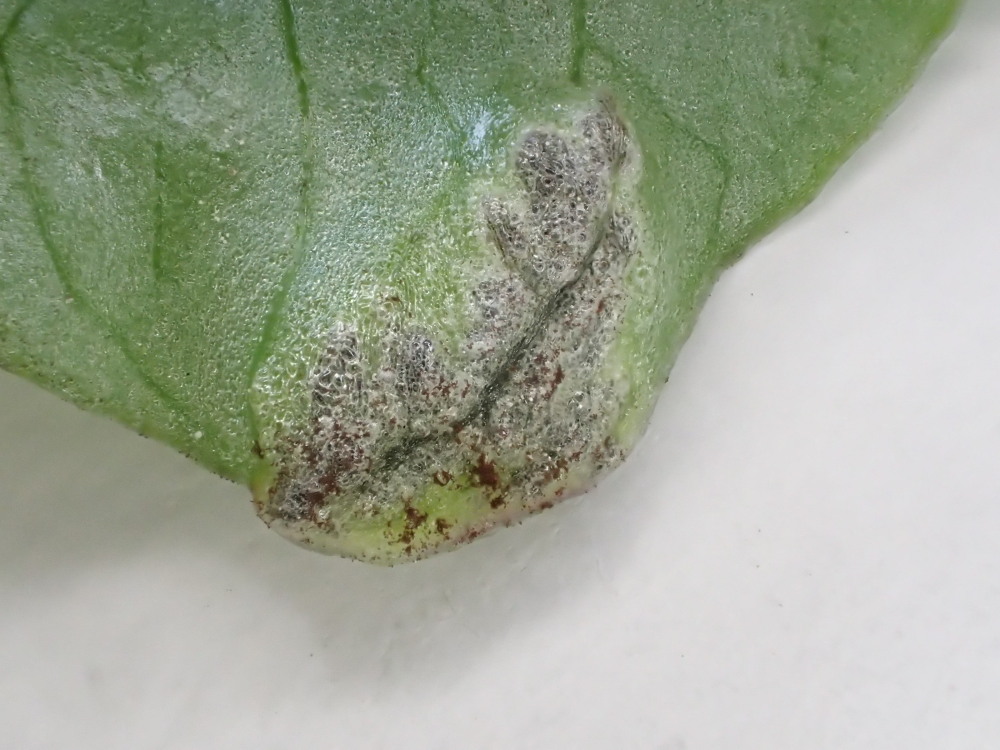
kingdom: Fungi
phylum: Basidiomycota
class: Ustilaginomycetes
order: Urocystidales
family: Urocystidaceae
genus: Urocystis
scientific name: Urocystis ficariae
